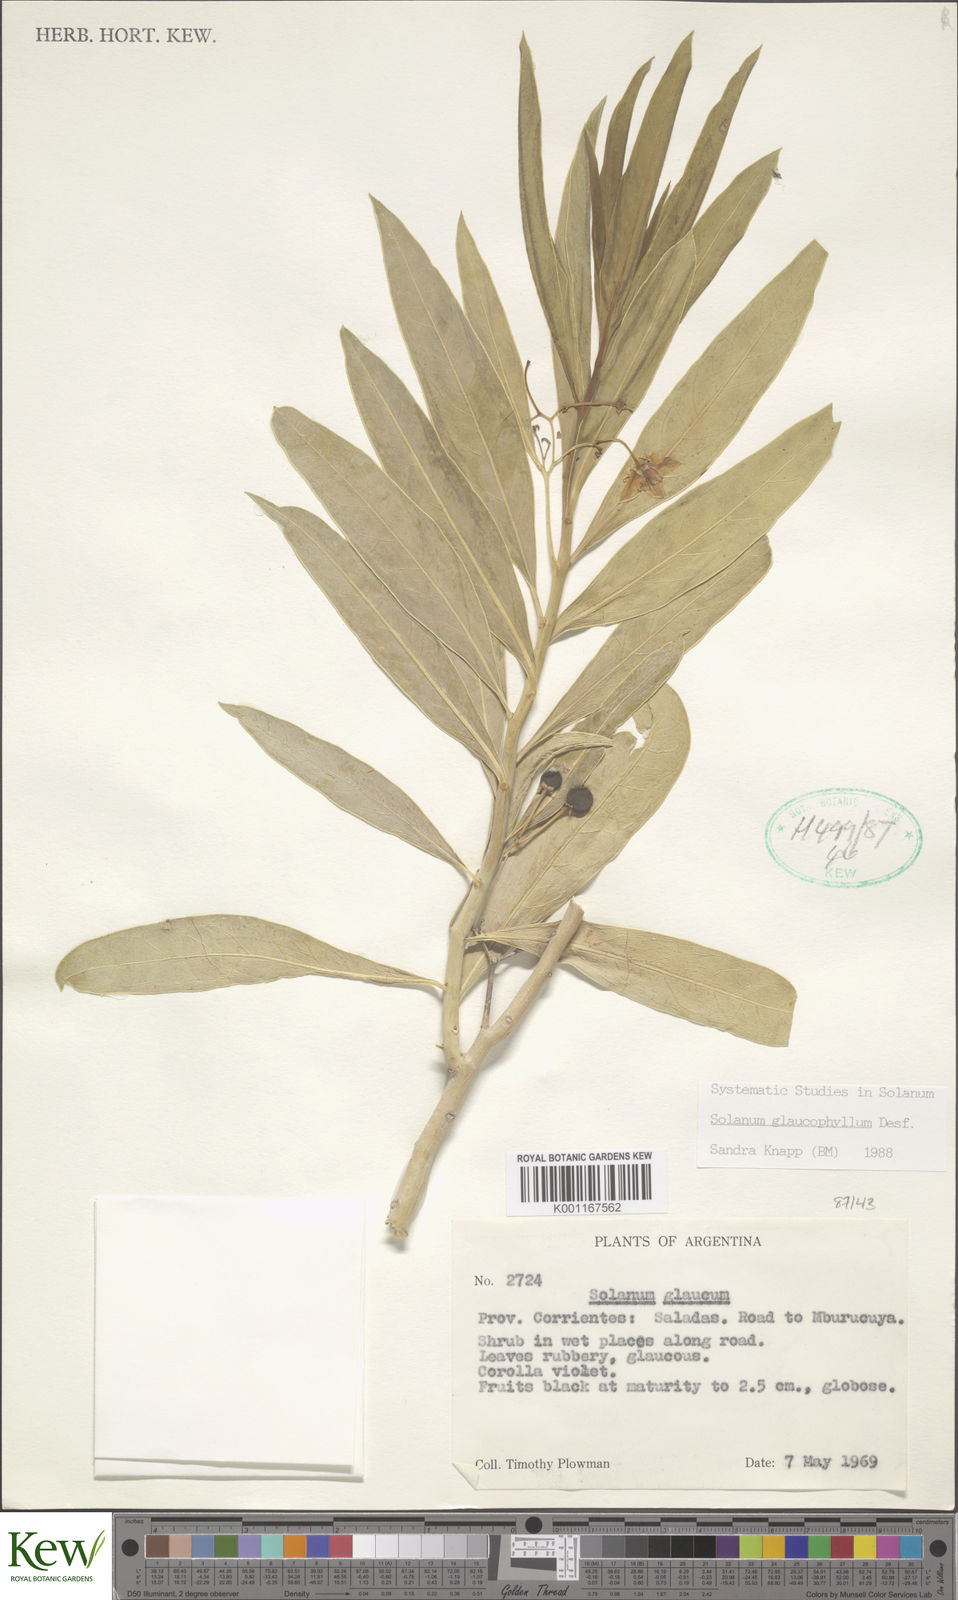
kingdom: Plantae
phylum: Tracheophyta
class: Magnoliopsida
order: Solanales
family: Solanaceae
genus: Solanum
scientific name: Solanum glaucophyllum
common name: Waxyleaf nightshade
